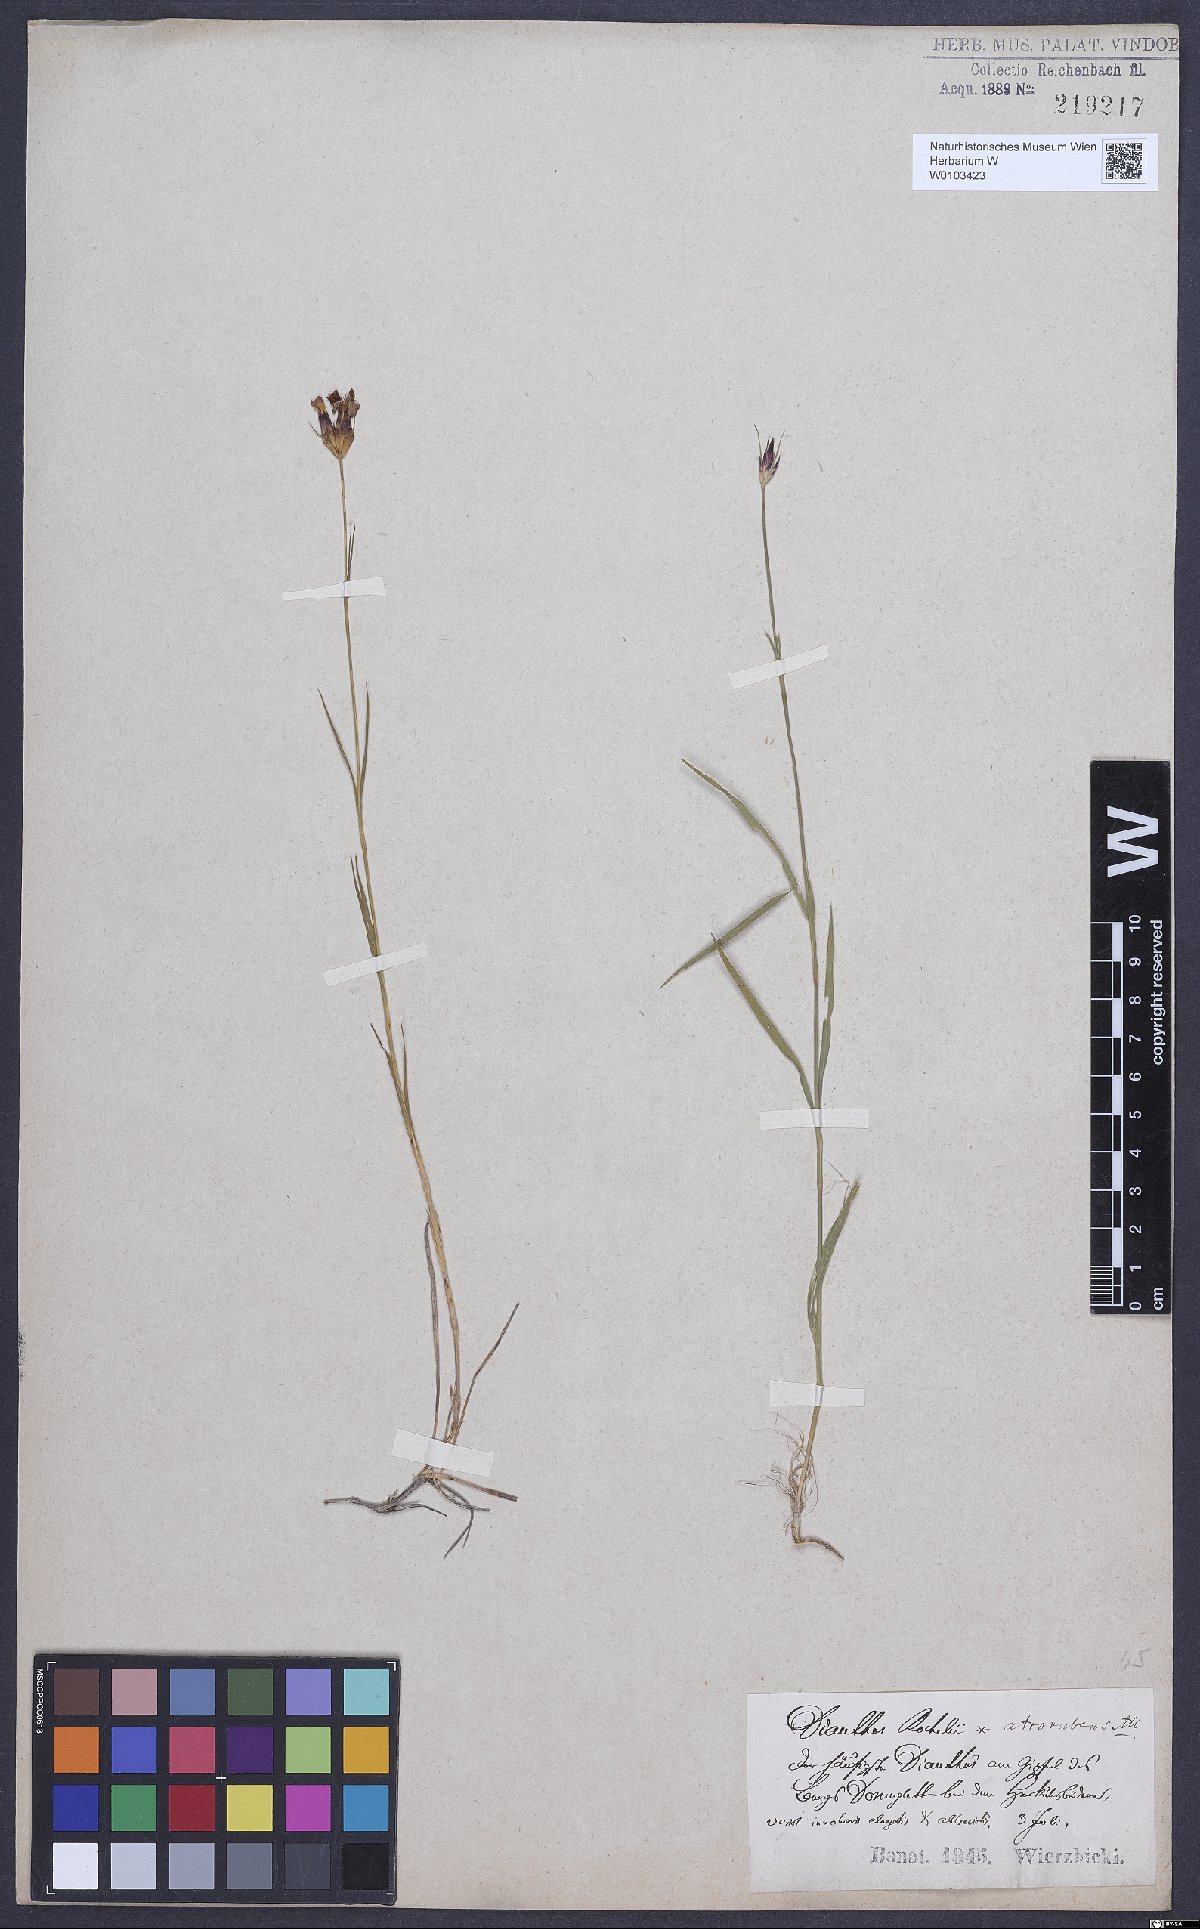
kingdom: Plantae
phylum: Tracheophyta
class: Magnoliopsida
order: Caryophyllales
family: Caryophyllaceae
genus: Dianthus
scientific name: Dianthus carthusianorum
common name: Carthusian pink
